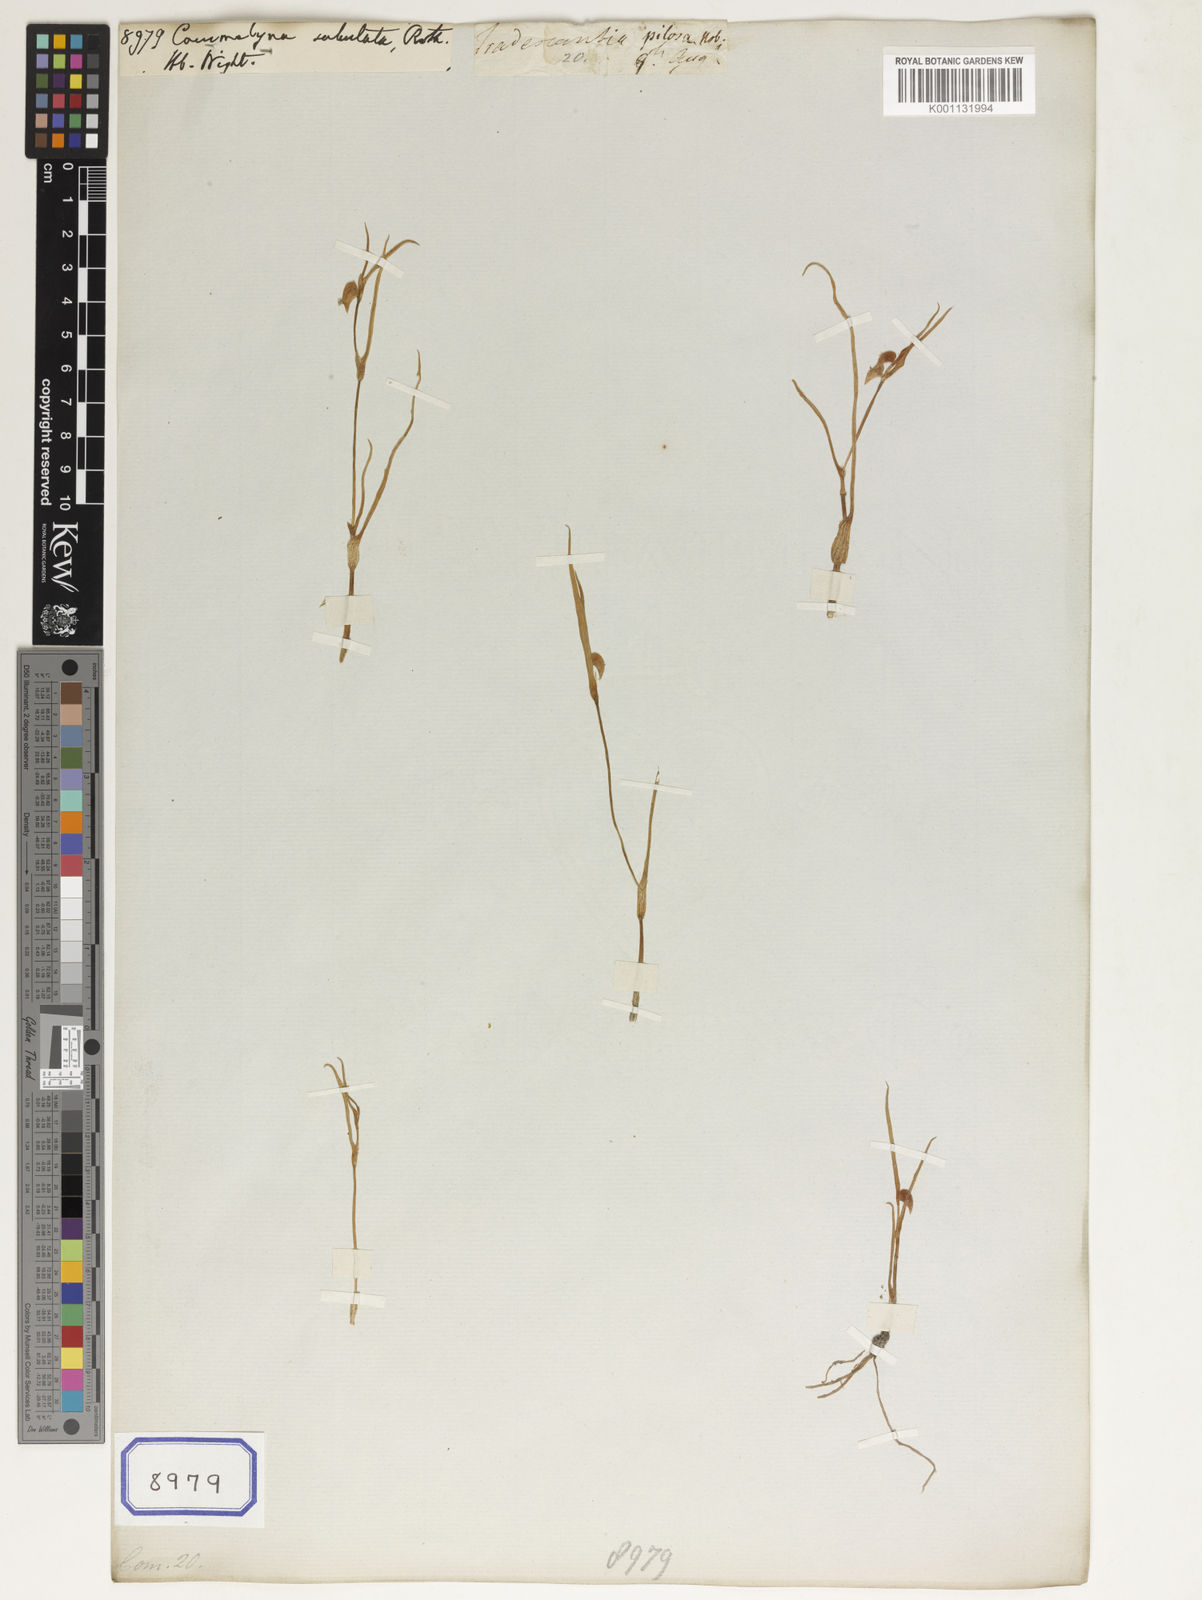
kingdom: Plantae
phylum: Tracheophyta
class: Liliopsida
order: Commelinales
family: Commelinaceae
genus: Commelina
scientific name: Commelina subulata
